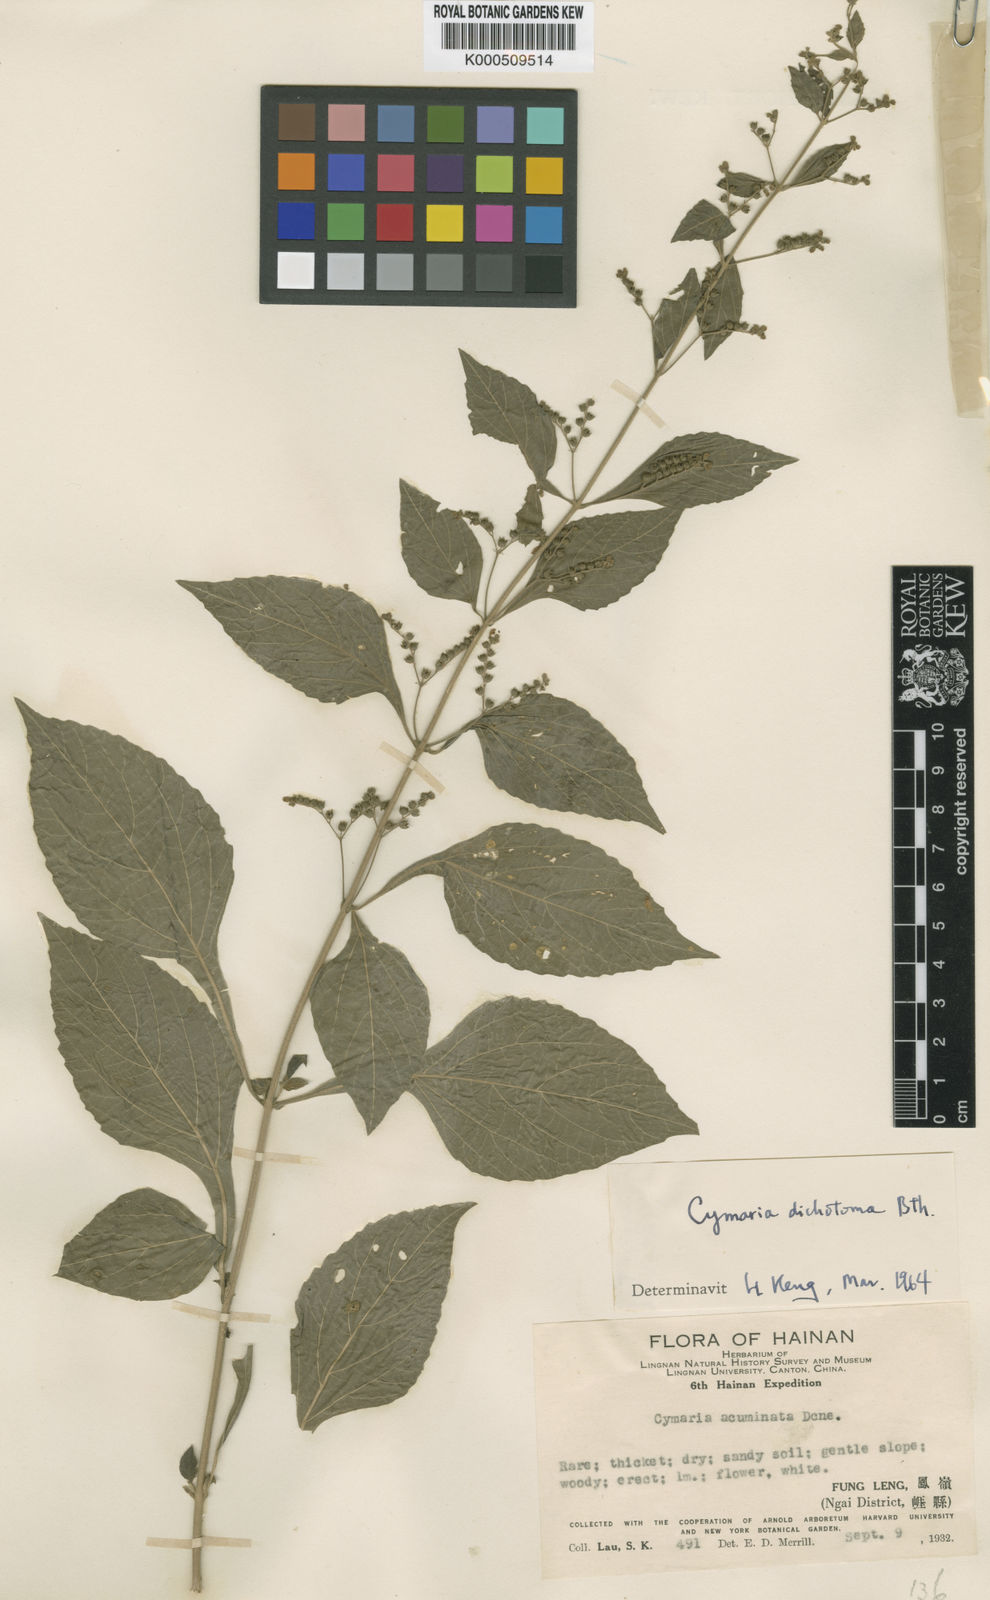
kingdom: Plantae
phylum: Tracheophyta
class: Magnoliopsida
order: Lamiales
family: Lamiaceae
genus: Cymaria
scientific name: Cymaria dichotoma
